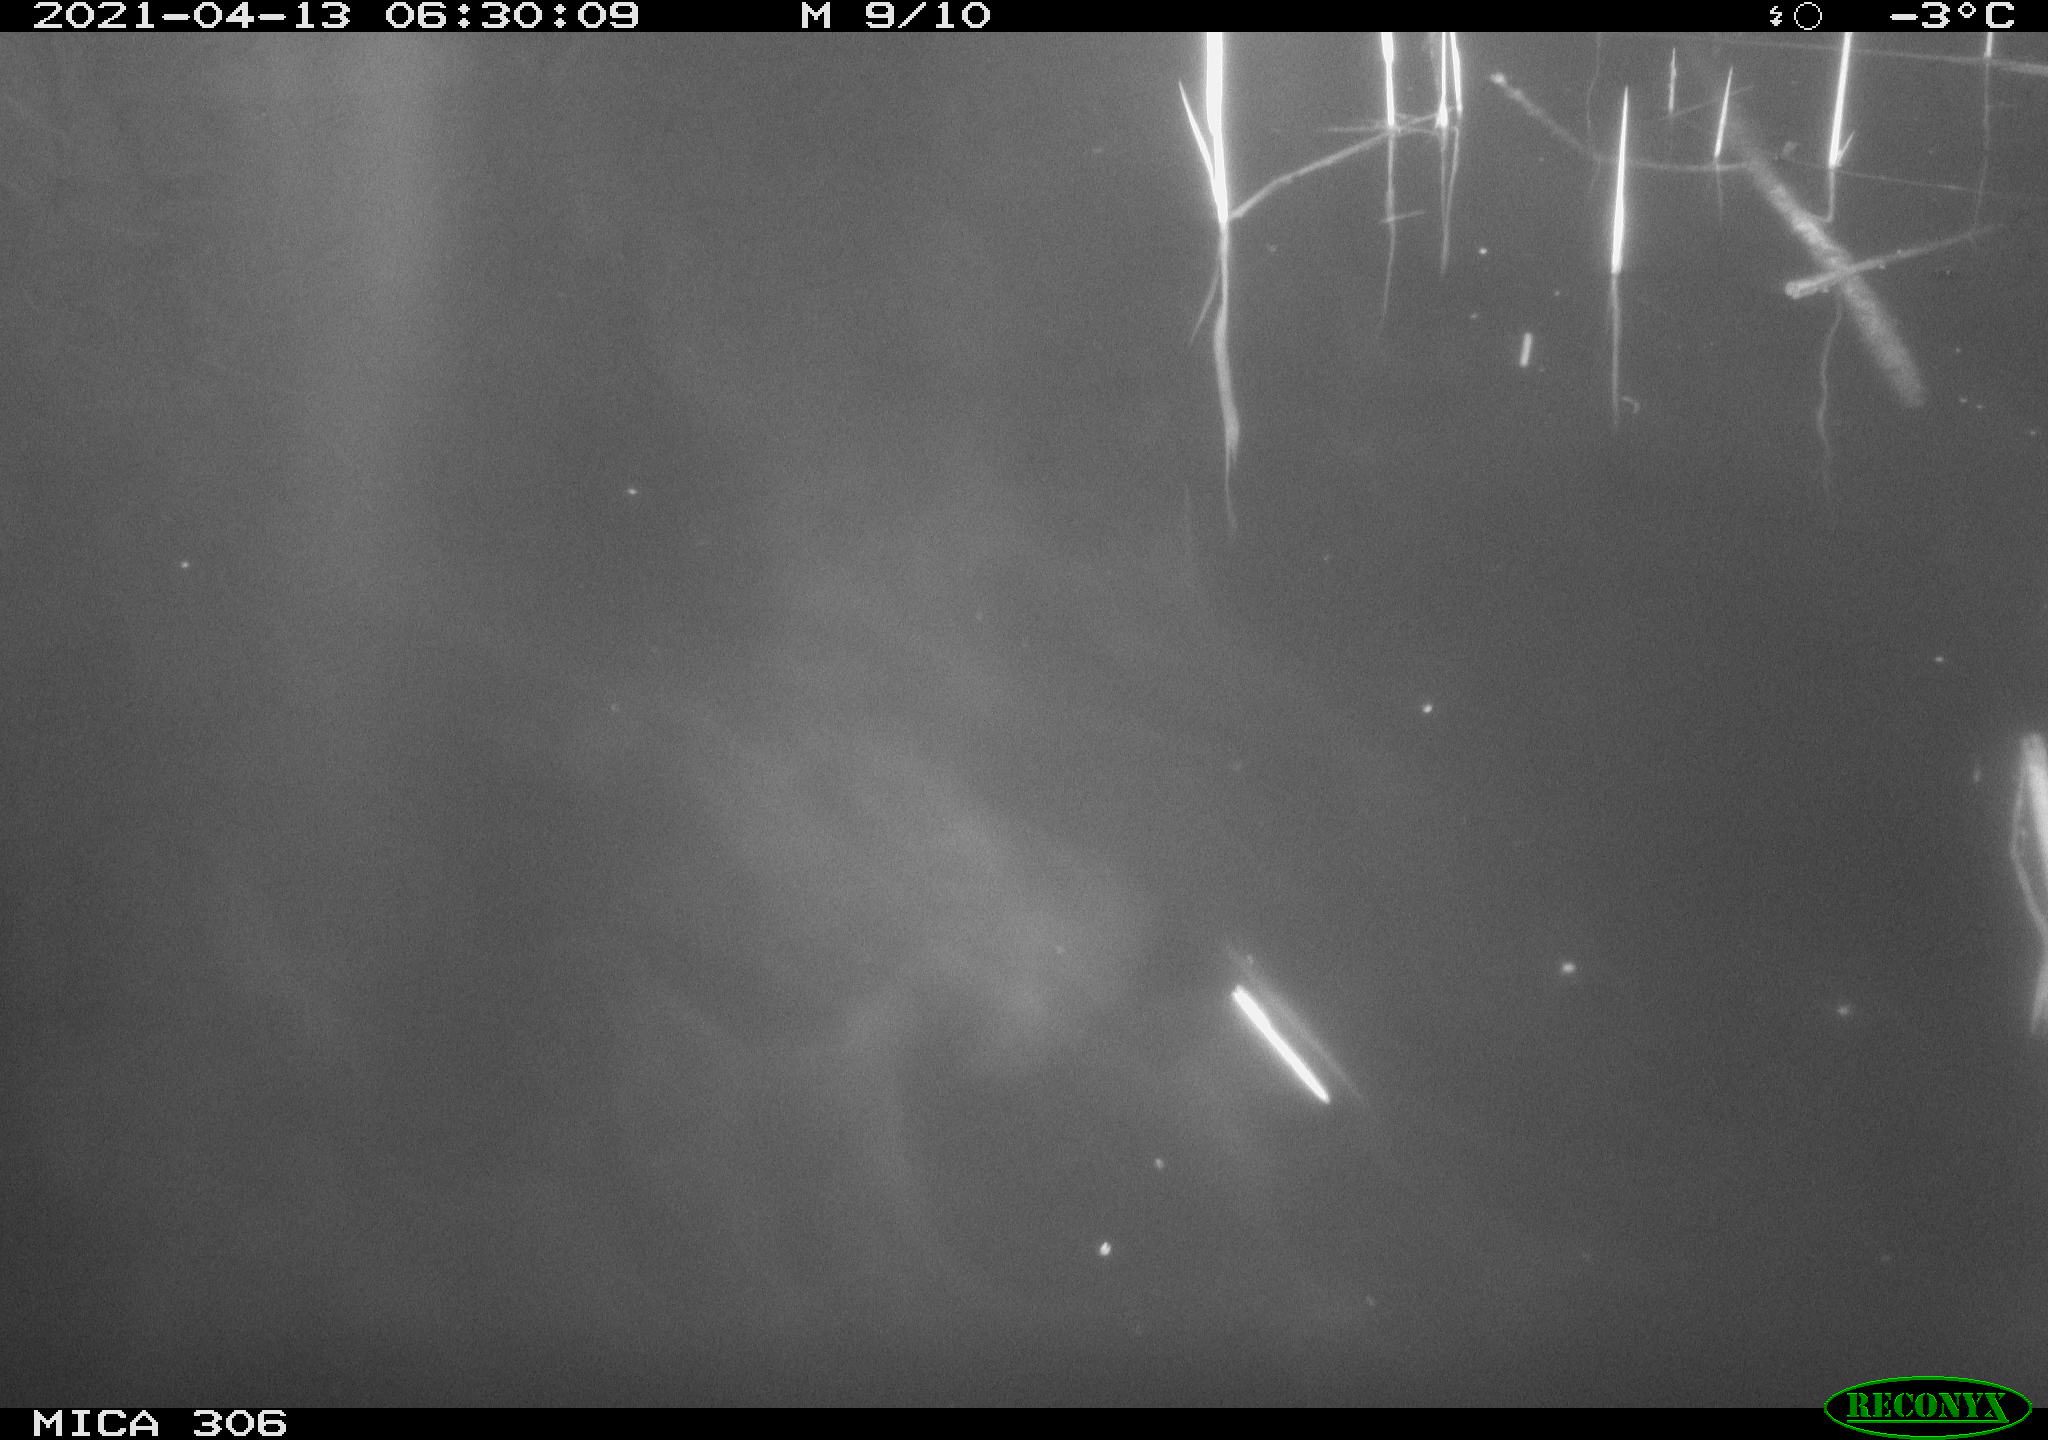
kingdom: Animalia
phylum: Chordata
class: Mammalia
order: Rodentia
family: Cricetidae
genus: Ondatra
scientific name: Ondatra zibethicus
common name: Muskrat
